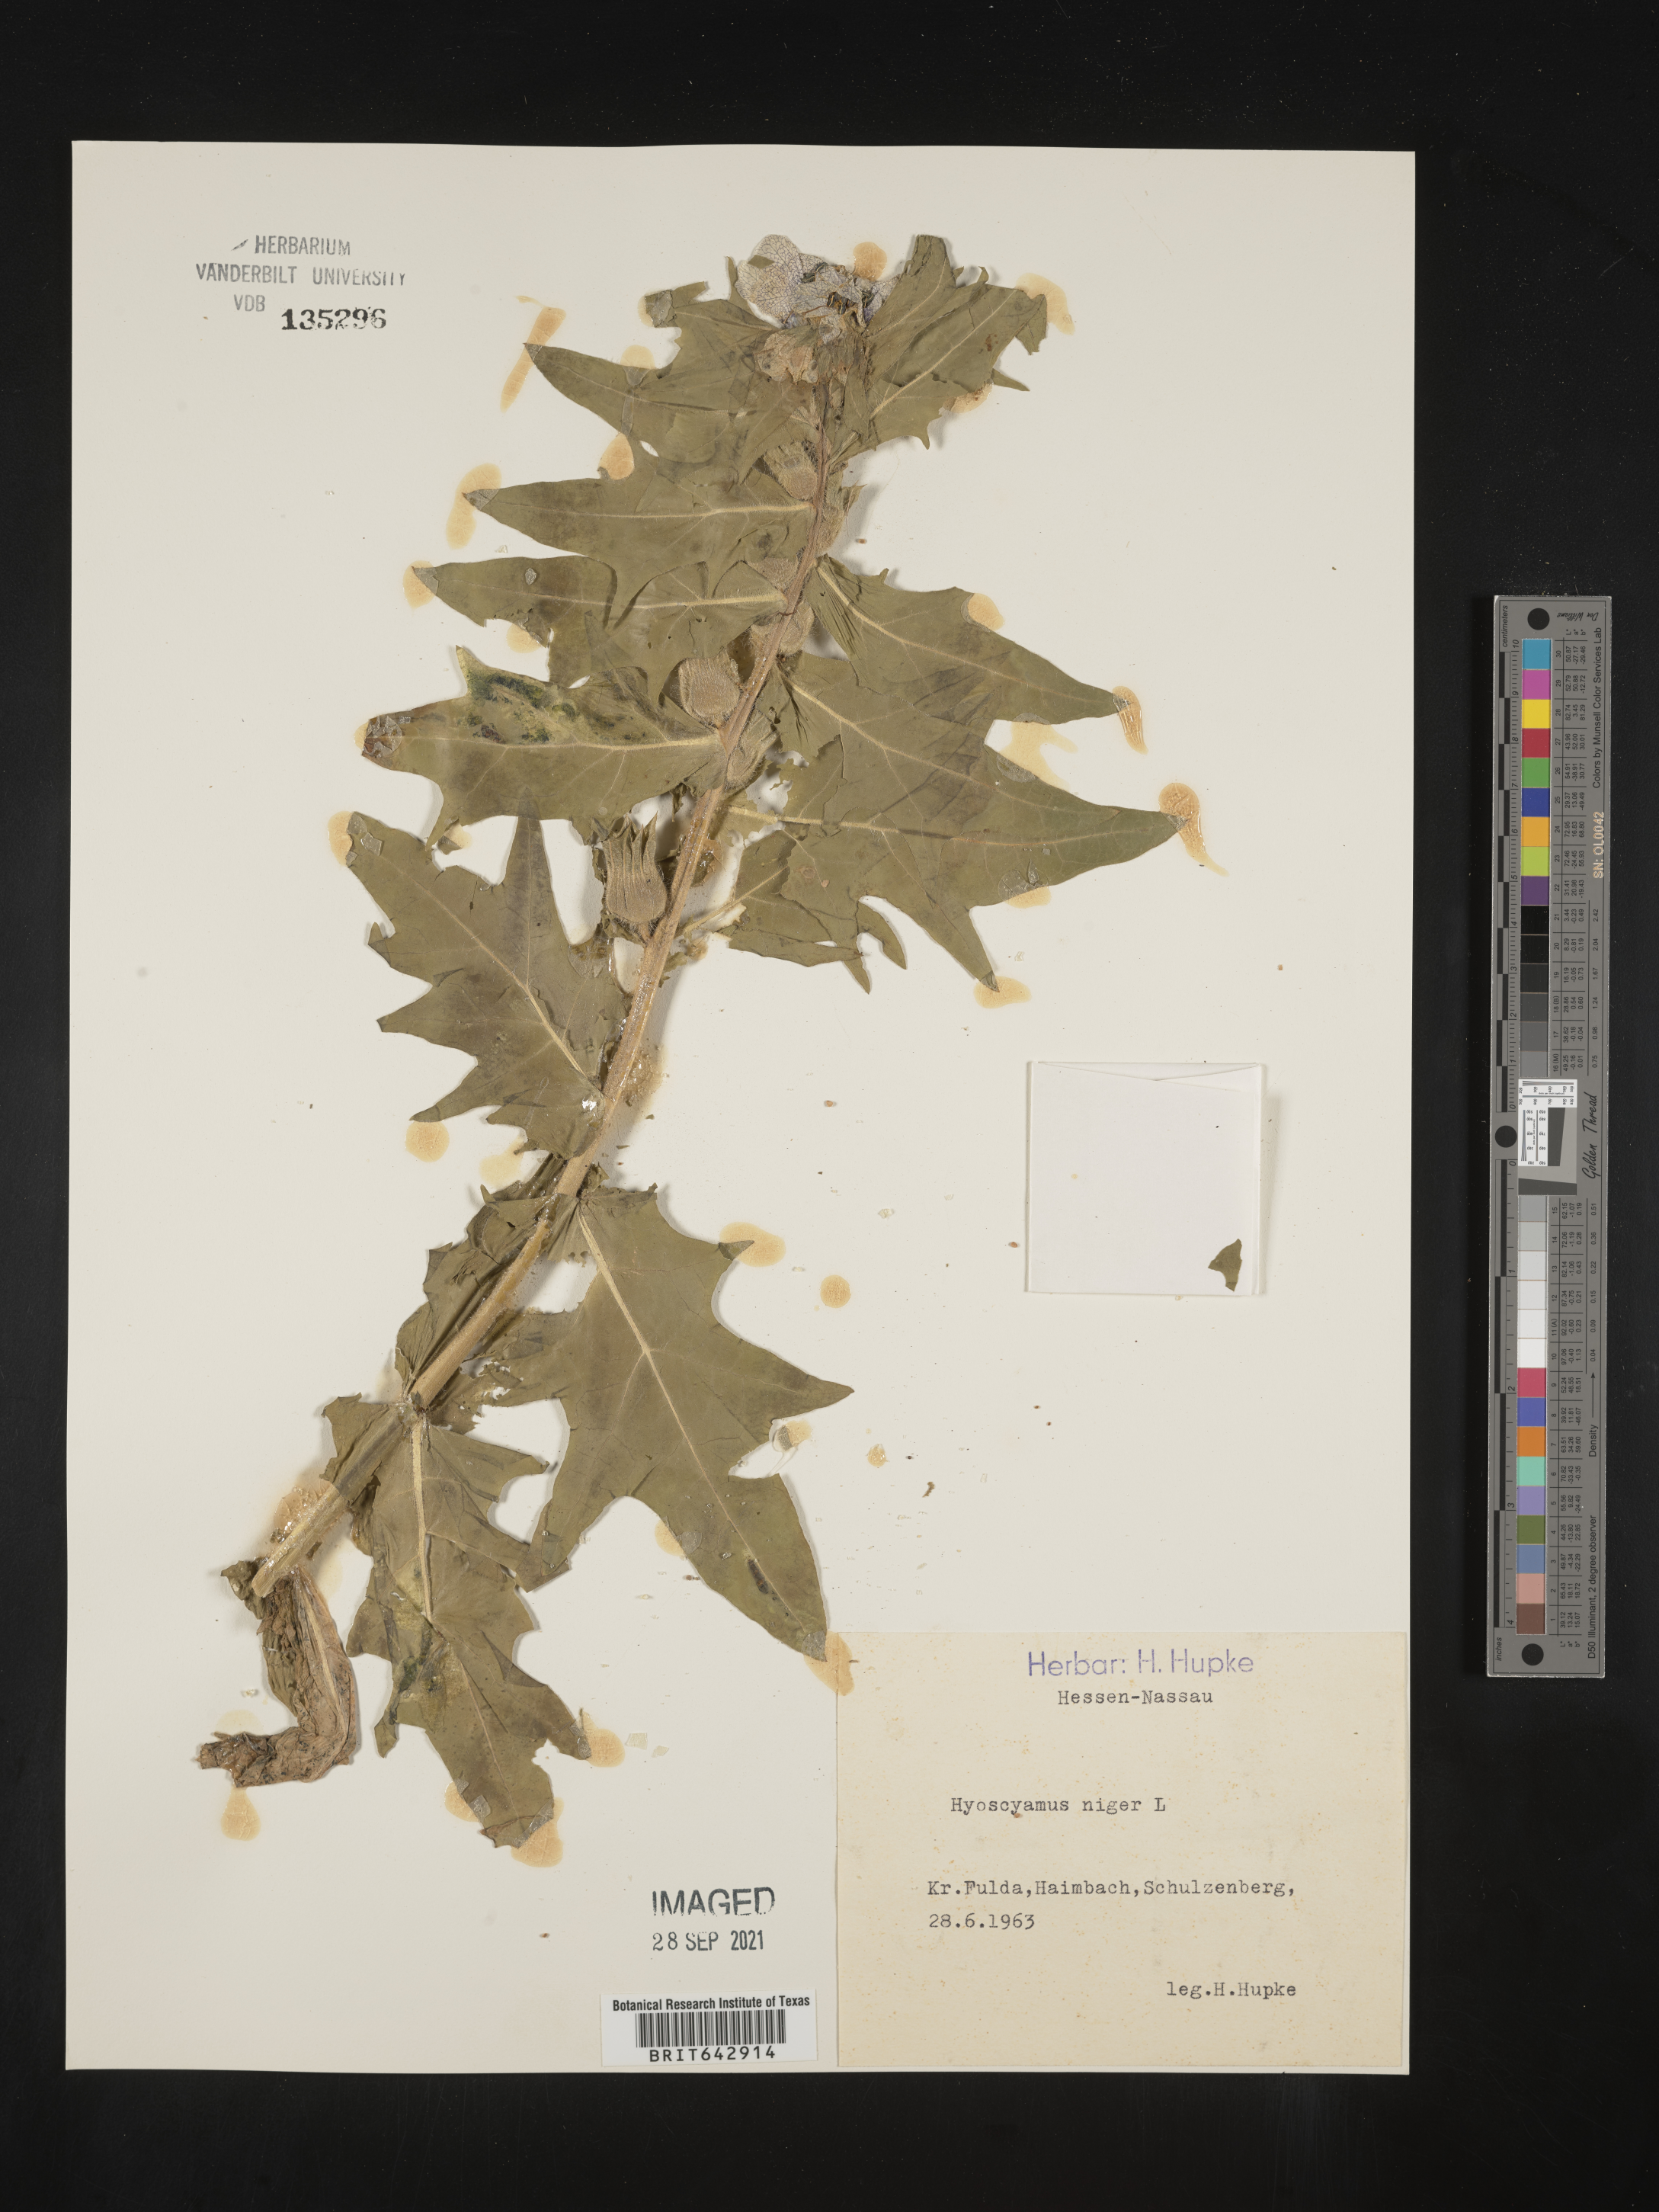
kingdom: Plantae
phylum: Tracheophyta
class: Magnoliopsida
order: Solanales
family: Solanaceae
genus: Hyoscyamus
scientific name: Hyoscyamus
